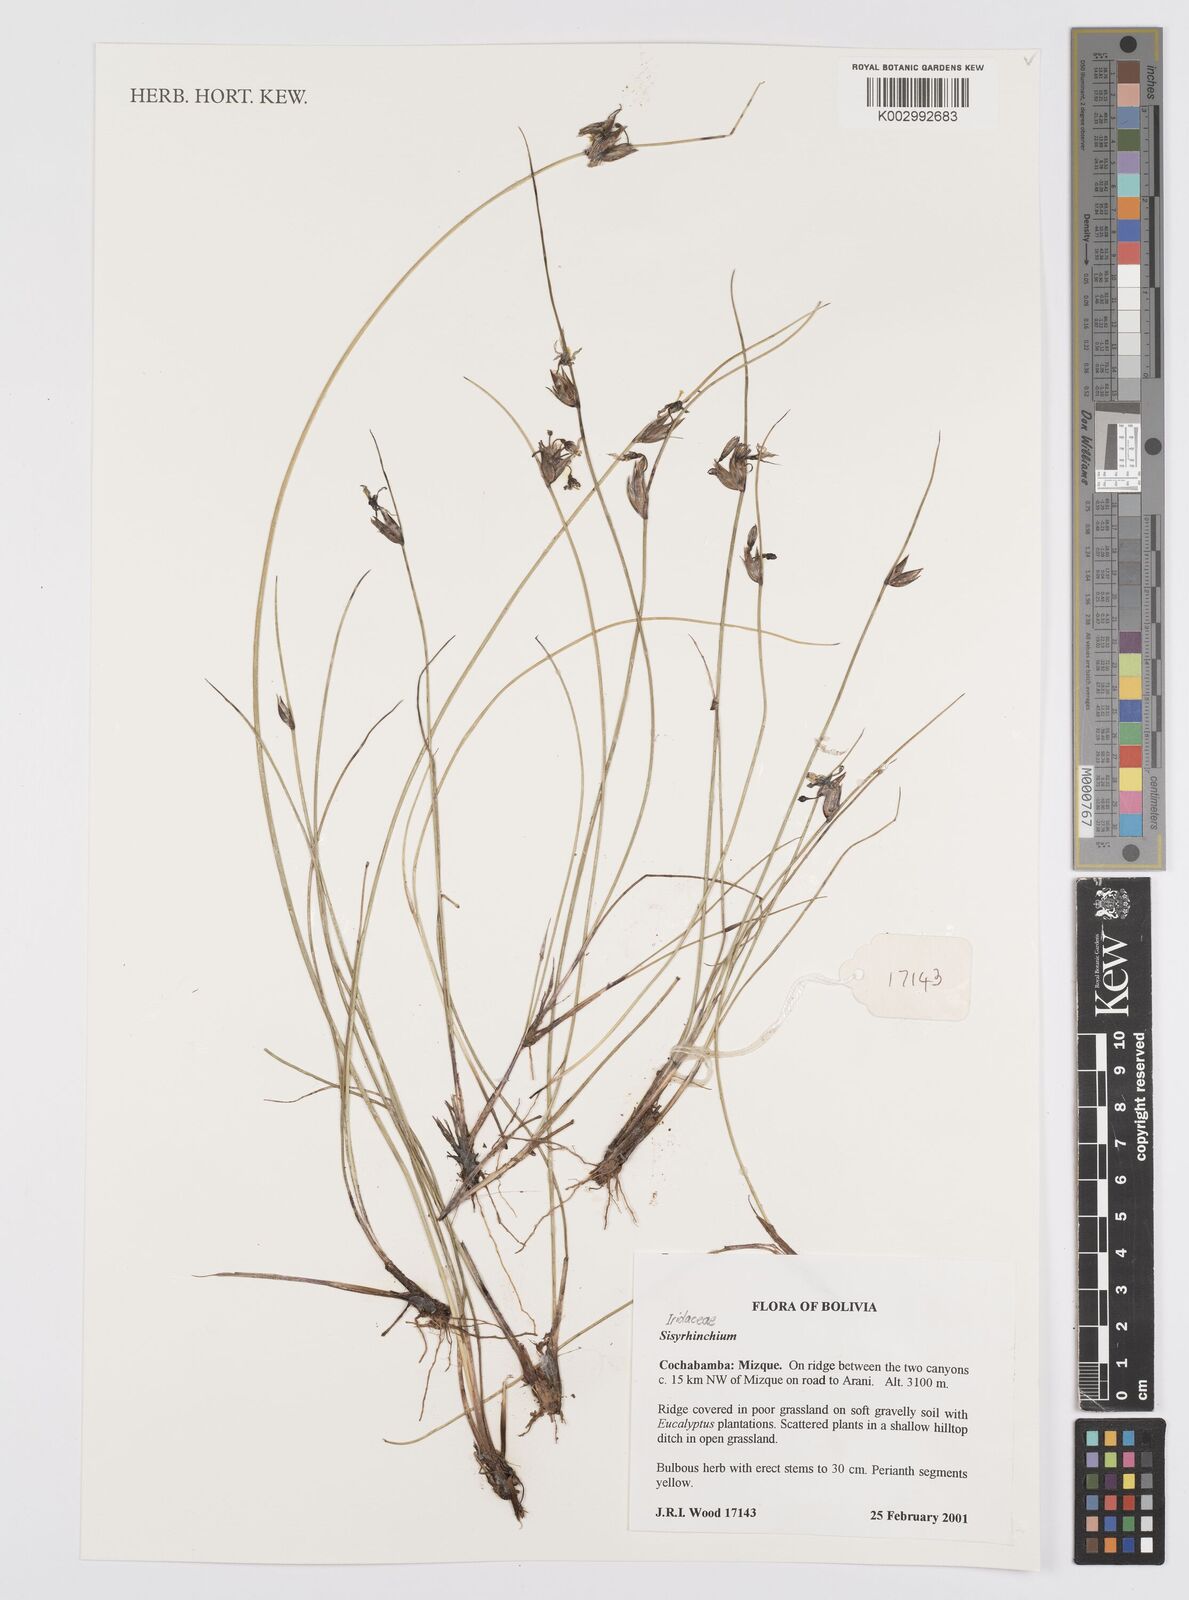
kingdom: Plantae
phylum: Tracheophyta
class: Liliopsida
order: Asparagales
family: Iridaceae
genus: Sisyrinchium
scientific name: Sisyrinchium
